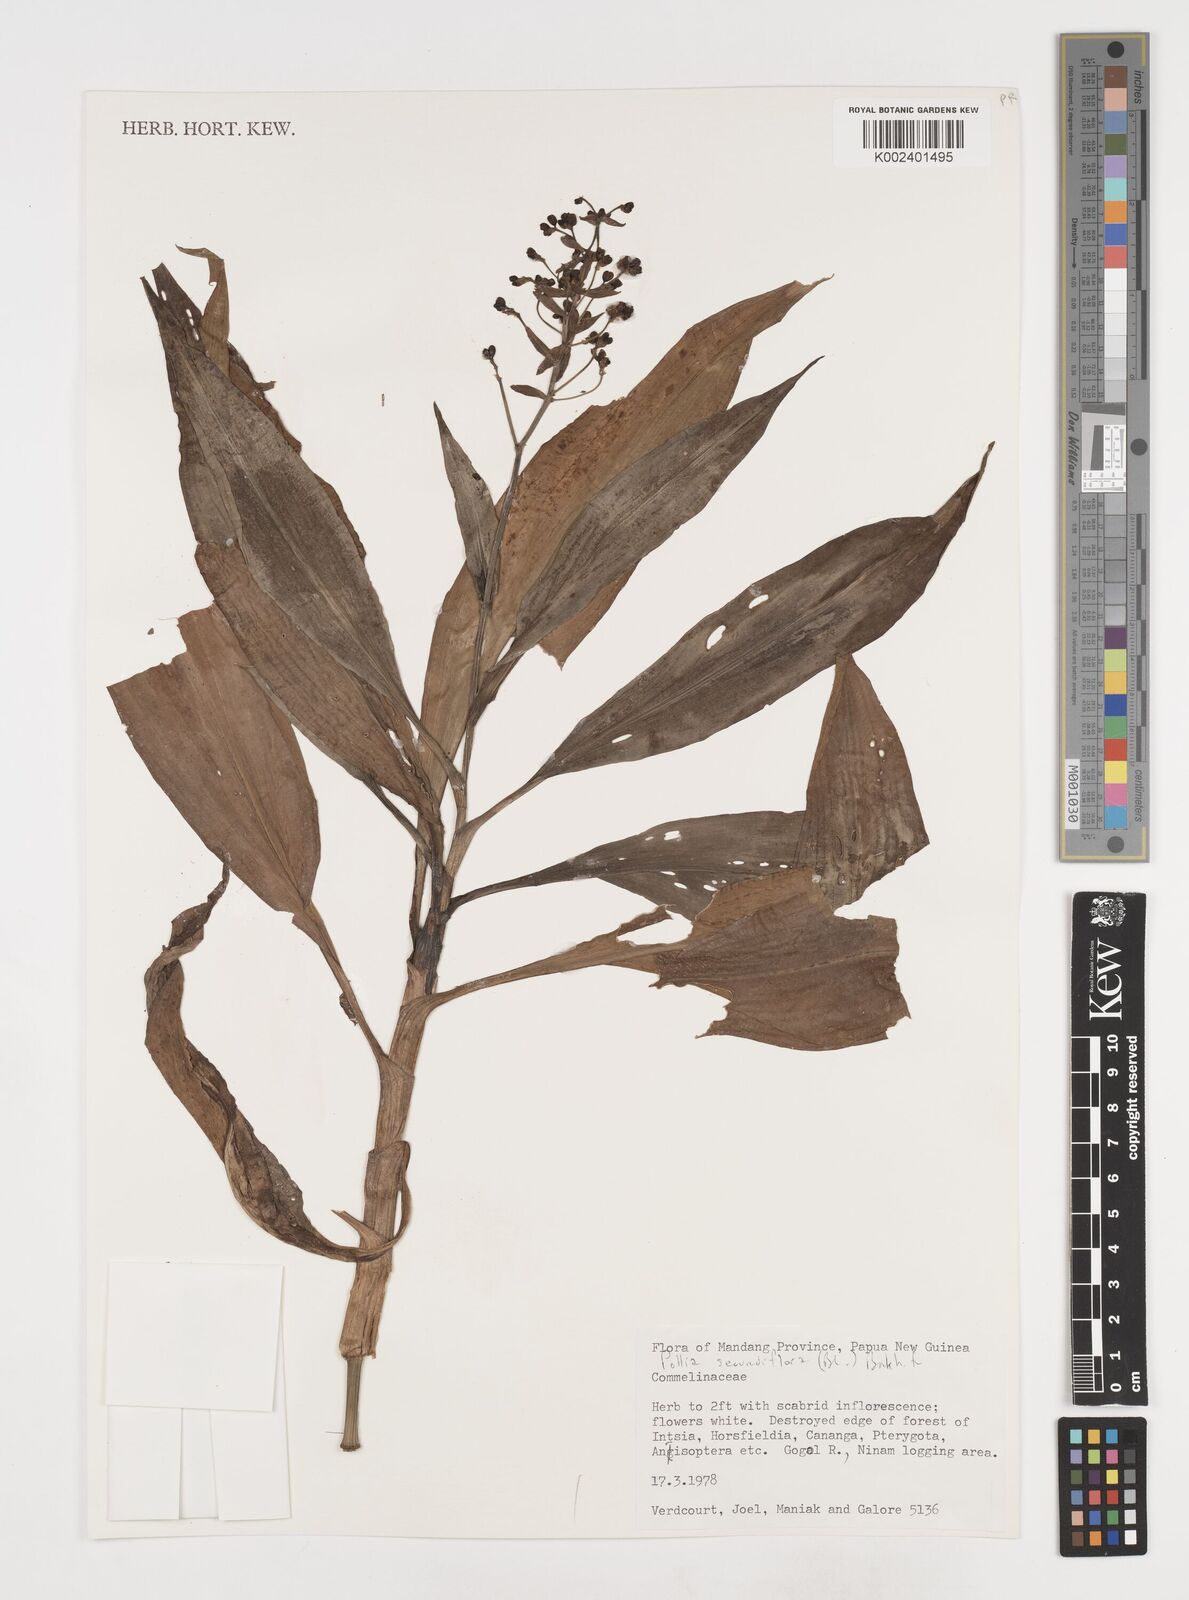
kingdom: Plantae
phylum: Tracheophyta
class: Liliopsida
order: Commelinales
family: Commelinaceae
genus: Pollia
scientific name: Pollia secundiflora
